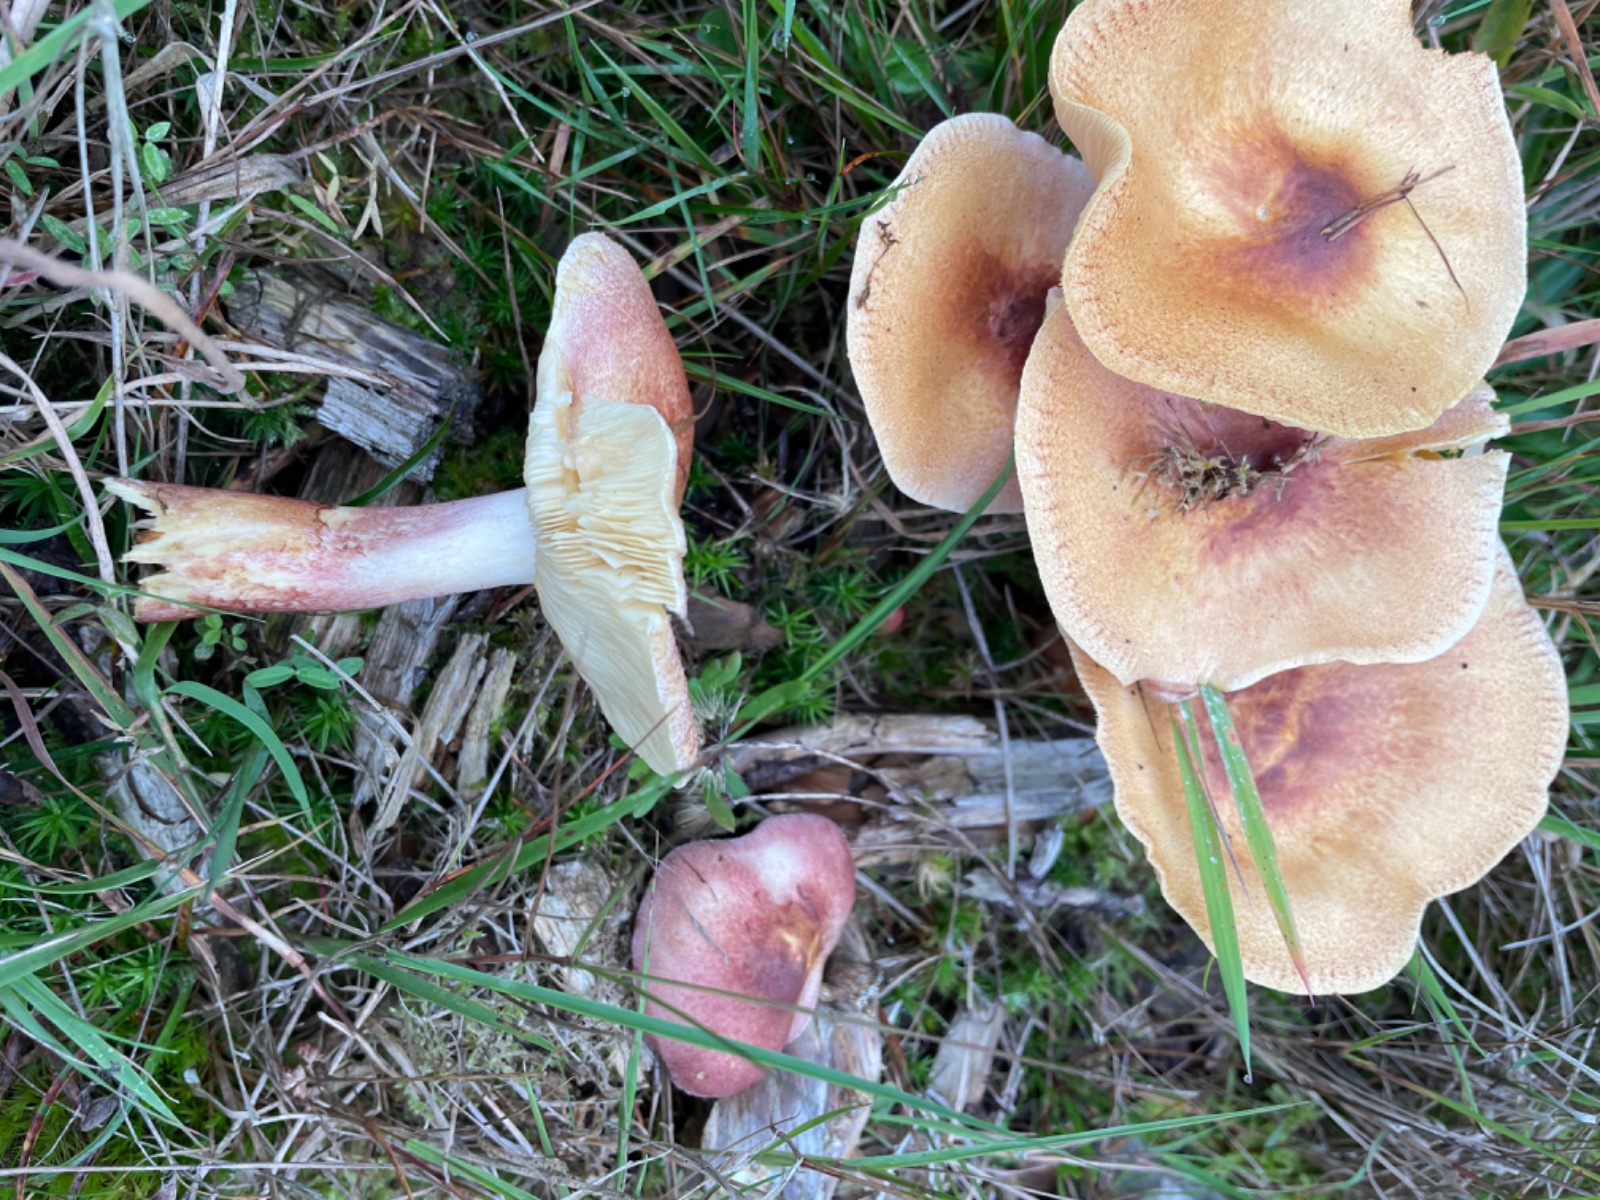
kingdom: Fungi
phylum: Basidiomycota
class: Agaricomycetes
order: Agaricales
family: Tricholomataceae
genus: Tricholomopsis
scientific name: Tricholomopsis rutilans
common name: purpur-væbnerhat
